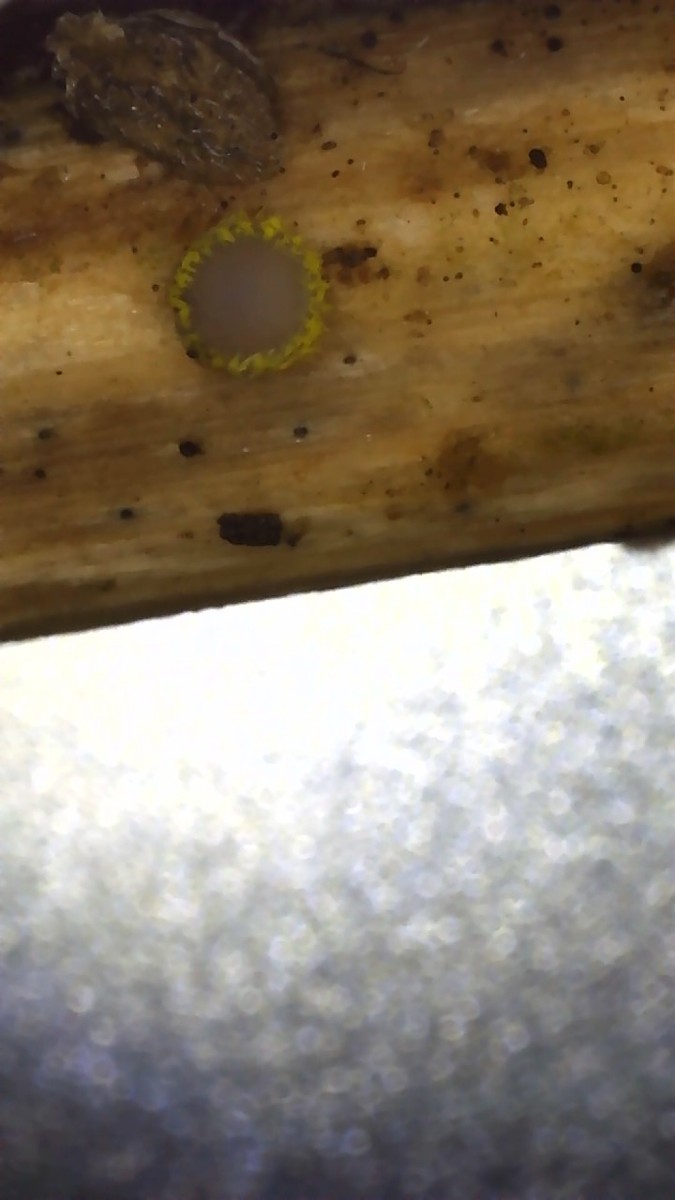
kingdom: Fungi
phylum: Ascomycota
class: Leotiomycetes
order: Helotiales
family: Lachnaceae
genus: Lachnum
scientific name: Lachnum sulphureum
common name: svovlhåret frynseskive
